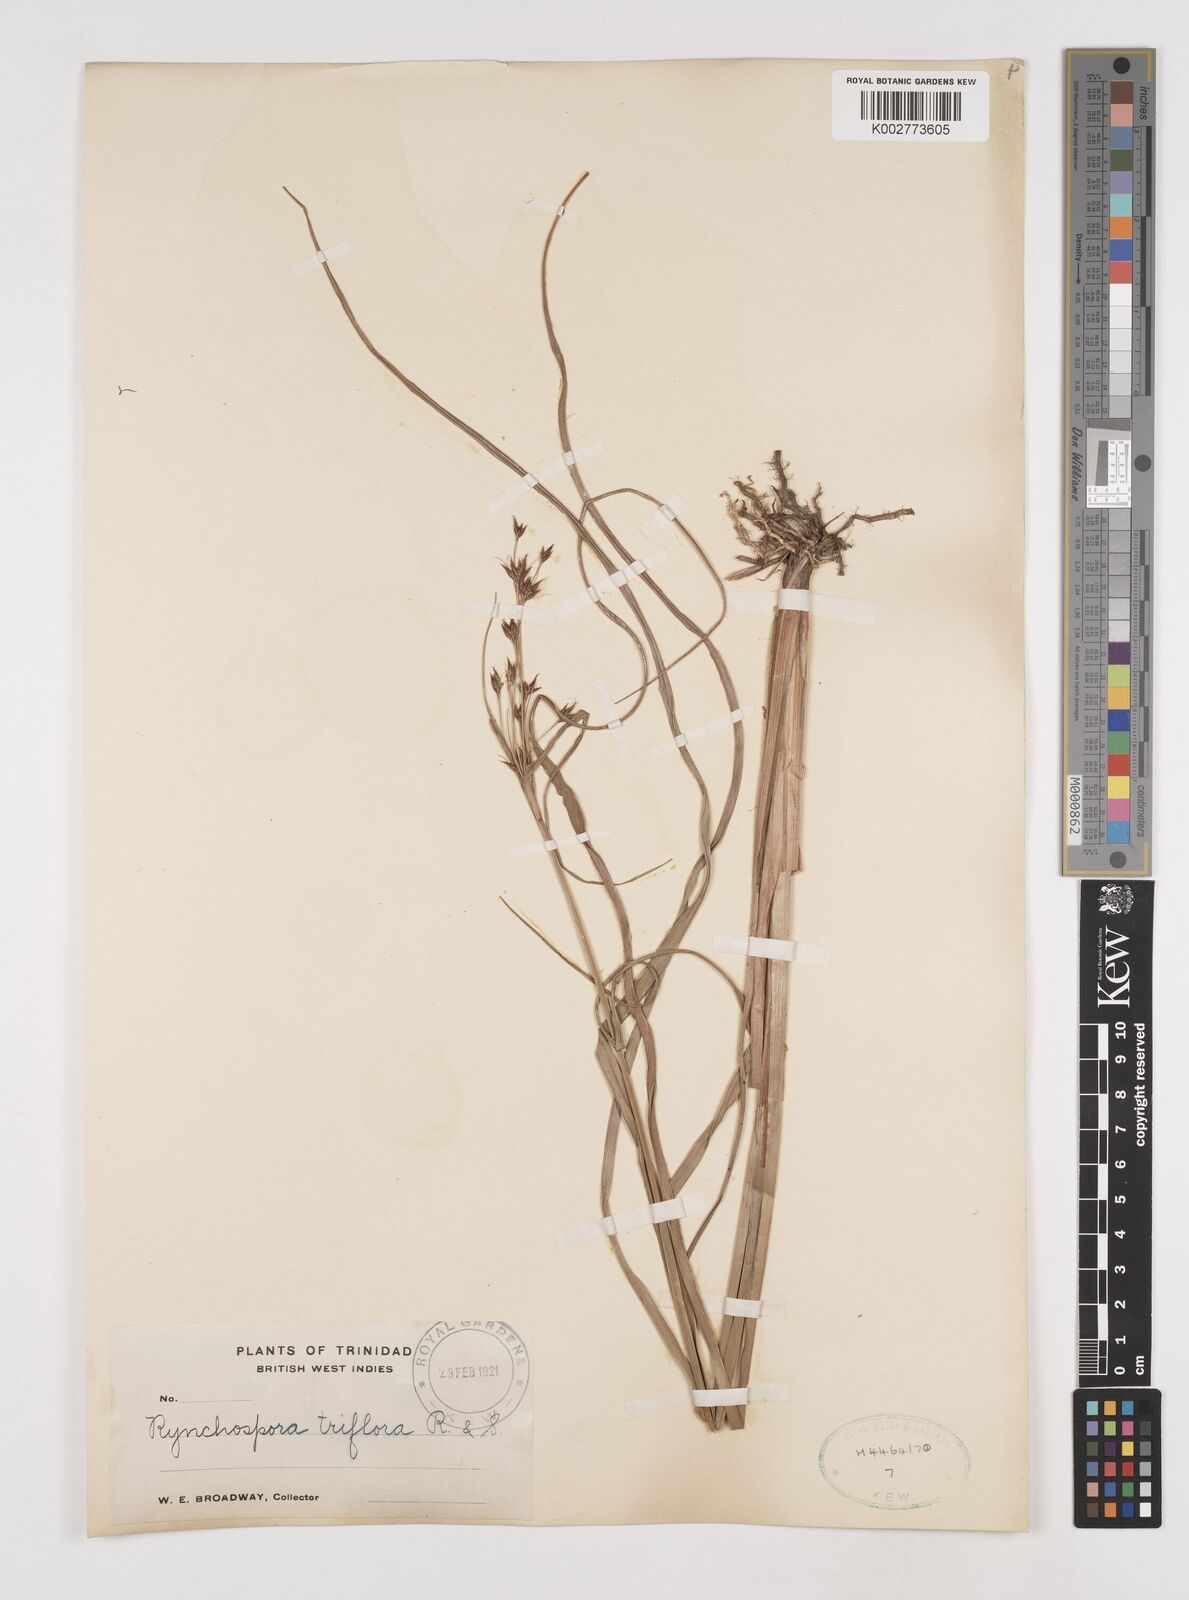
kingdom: Plantae
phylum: Tracheophyta
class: Liliopsida
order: Poales
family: Cyperaceae
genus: Rhynchospora
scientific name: Rhynchospora triflora
